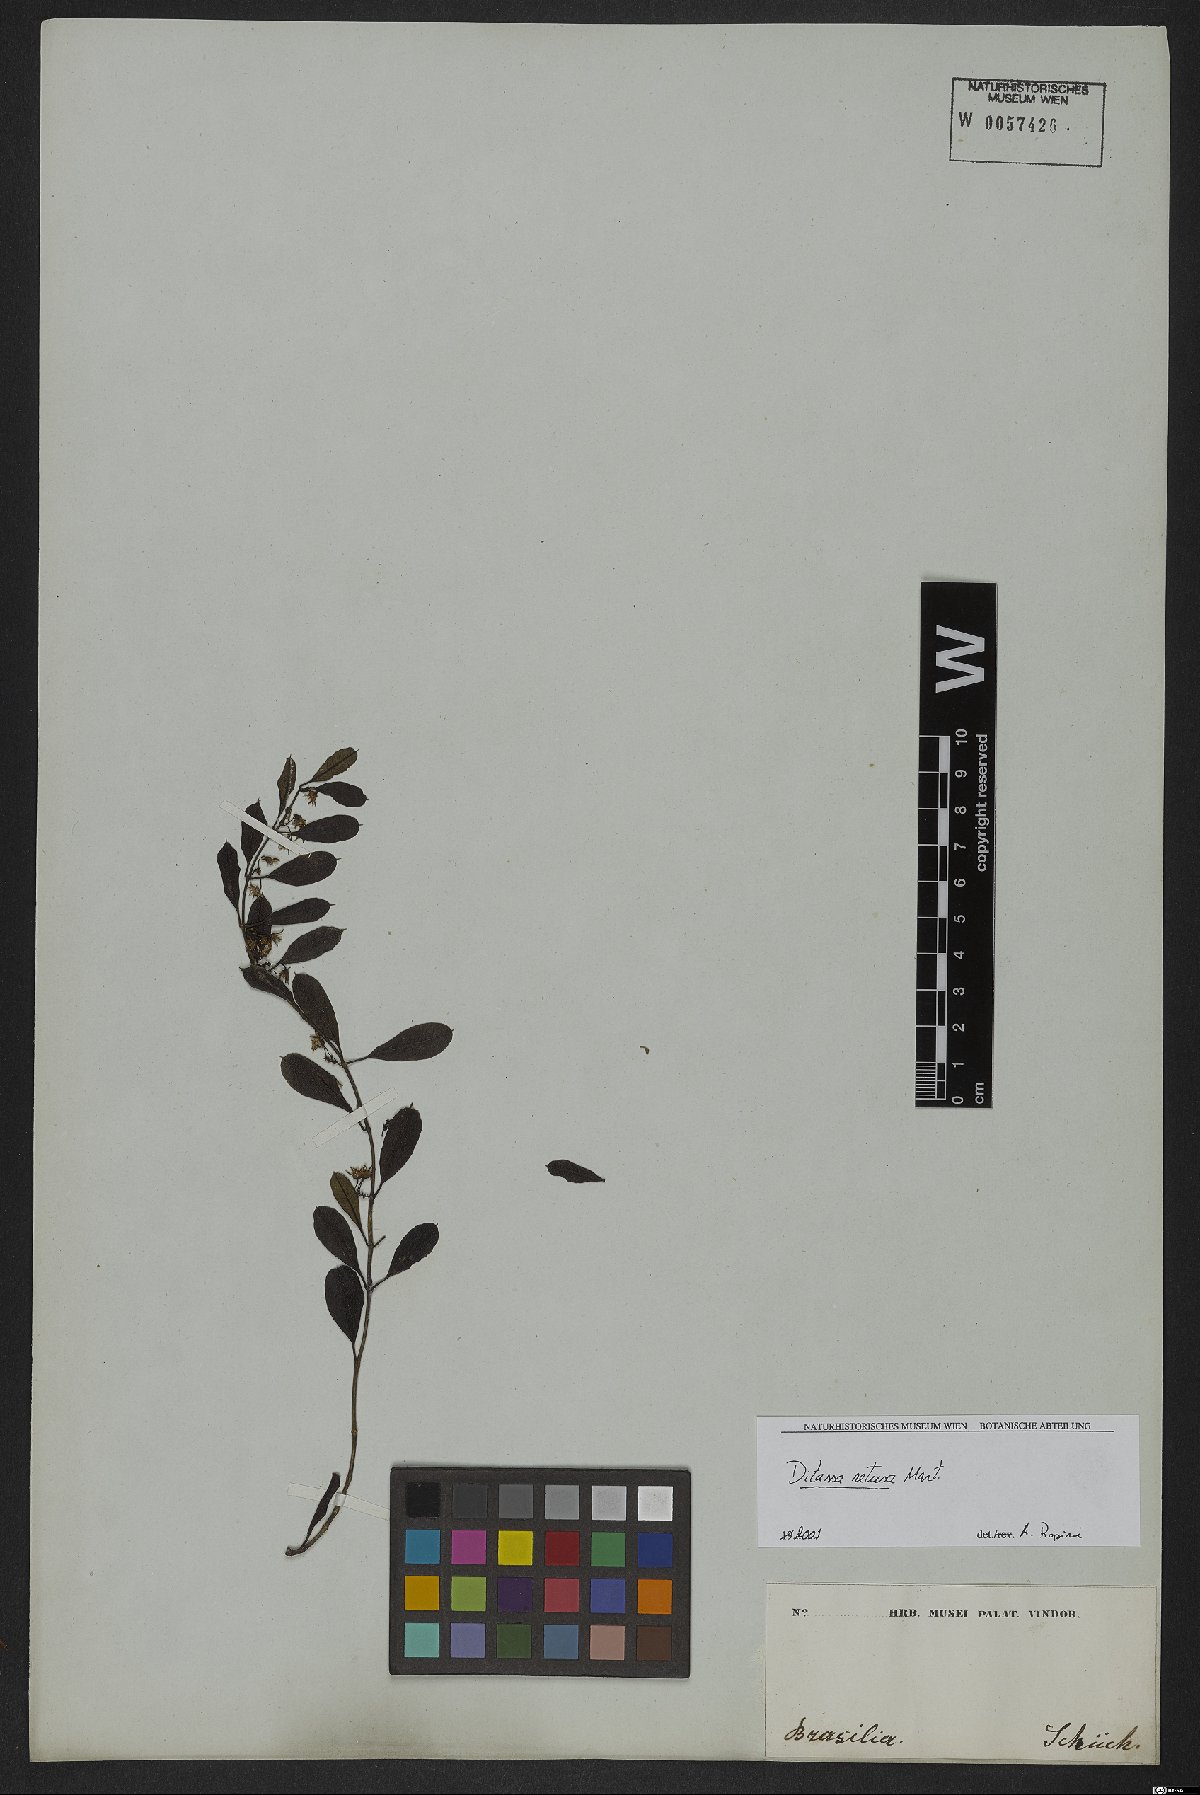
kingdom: Plantae
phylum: Tracheophyta
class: Magnoliopsida
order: Gentianales
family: Apocynaceae
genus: Ditassa
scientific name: Ditassa retusa
